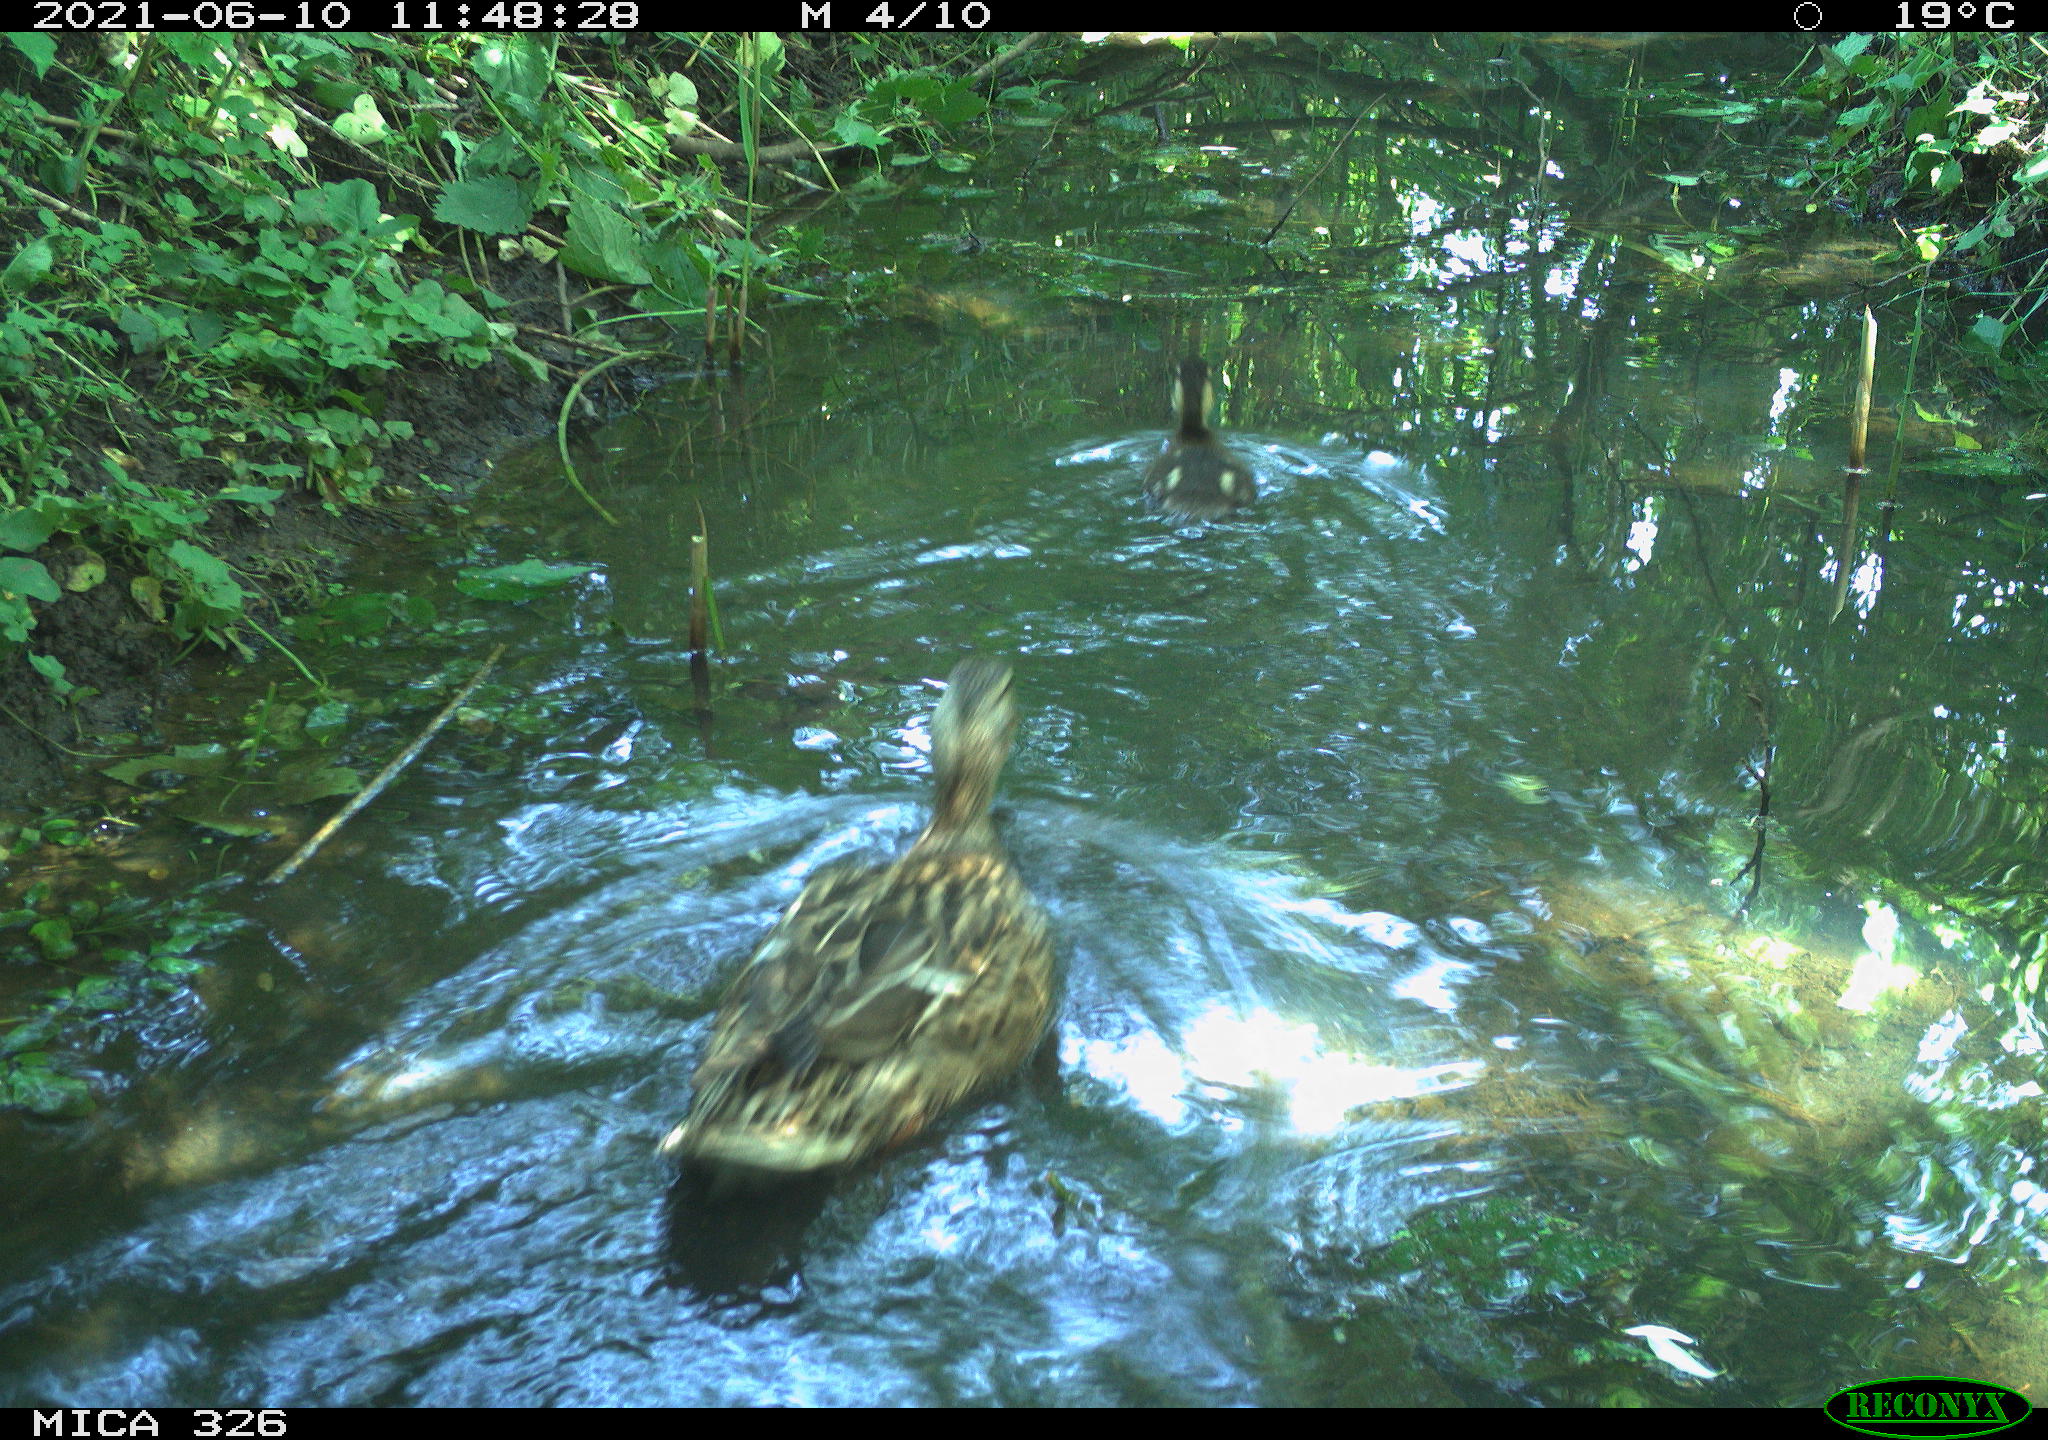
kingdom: Animalia
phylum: Chordata
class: Aves
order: Anseriformes
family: Anatidae
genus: Anas
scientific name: Anas platyrhynchos
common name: Mallard
